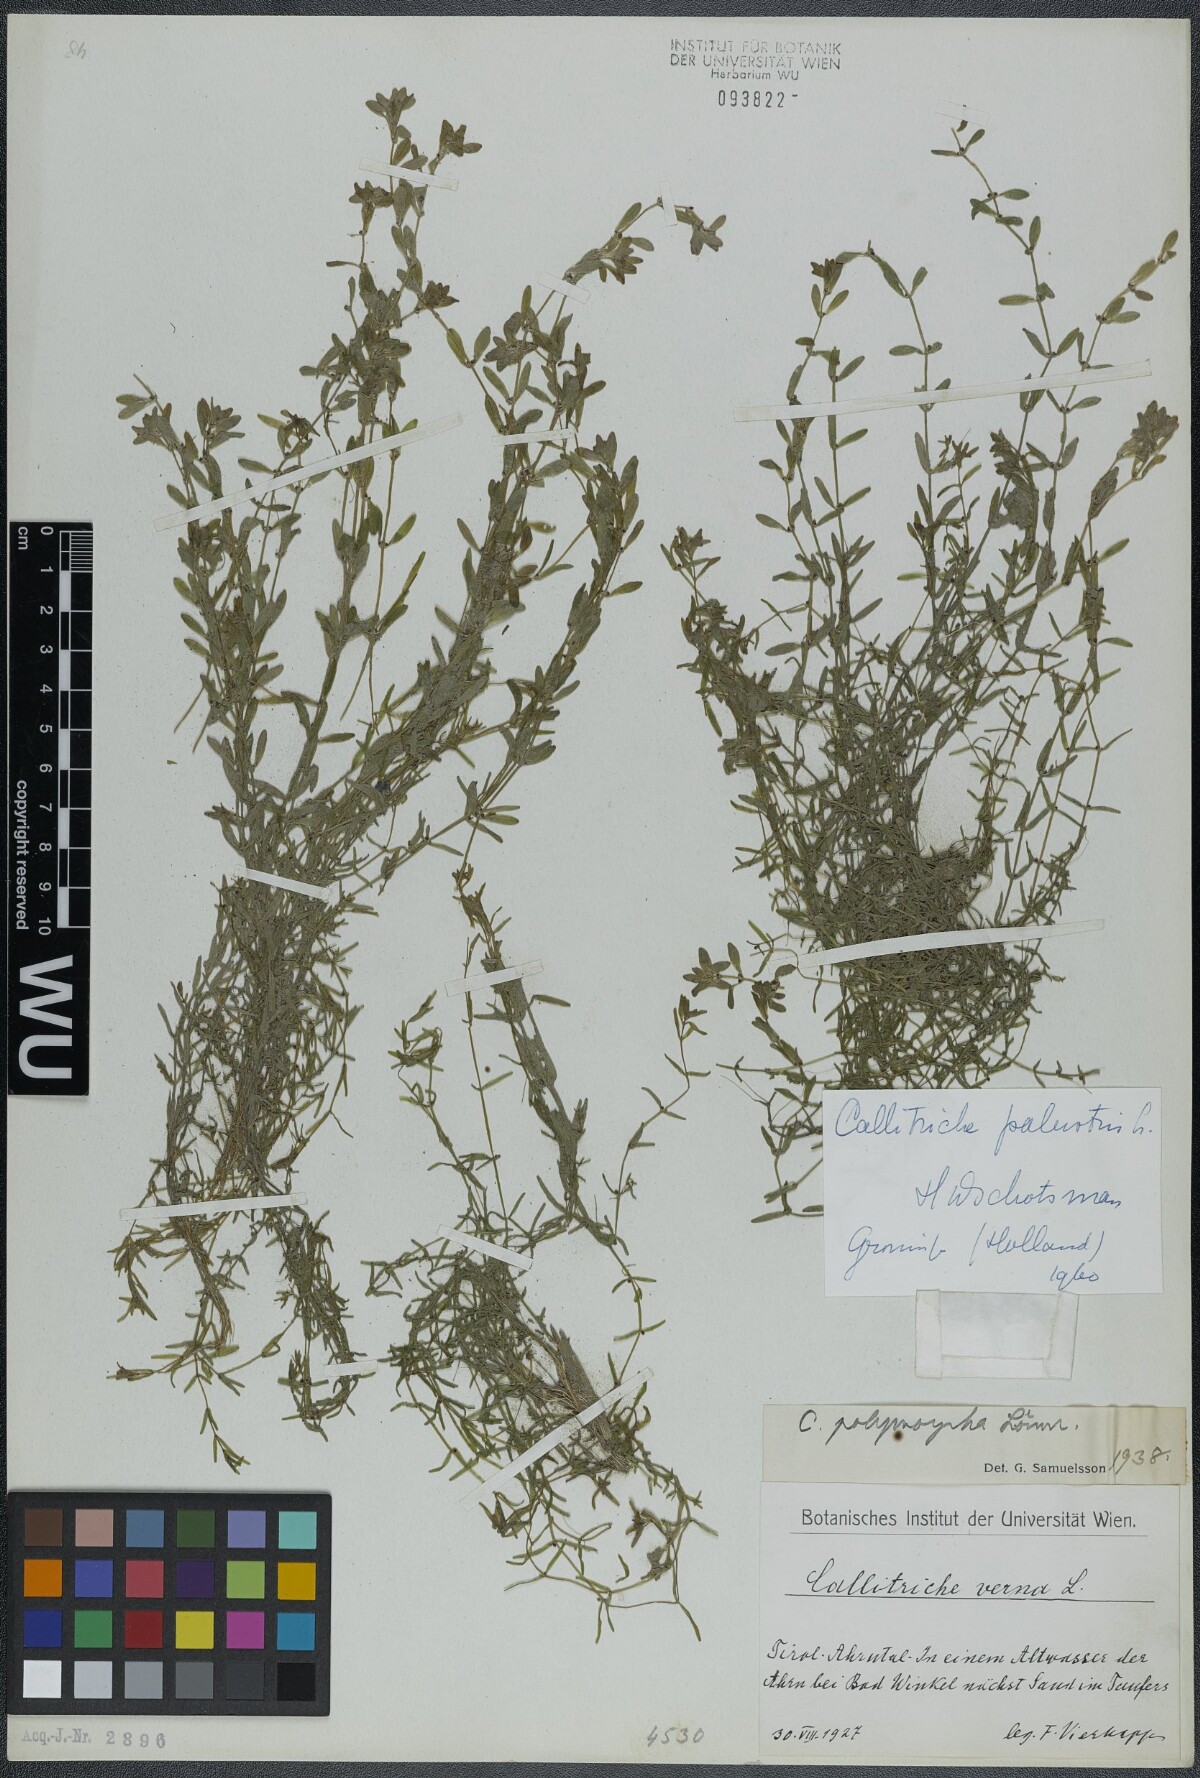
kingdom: Plantae
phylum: Tracheophyta
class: Magnoliopsida
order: Lamiales
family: Plantaginaceae
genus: Callitriche
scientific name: Callitriche palustris
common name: Spring water-starwort
